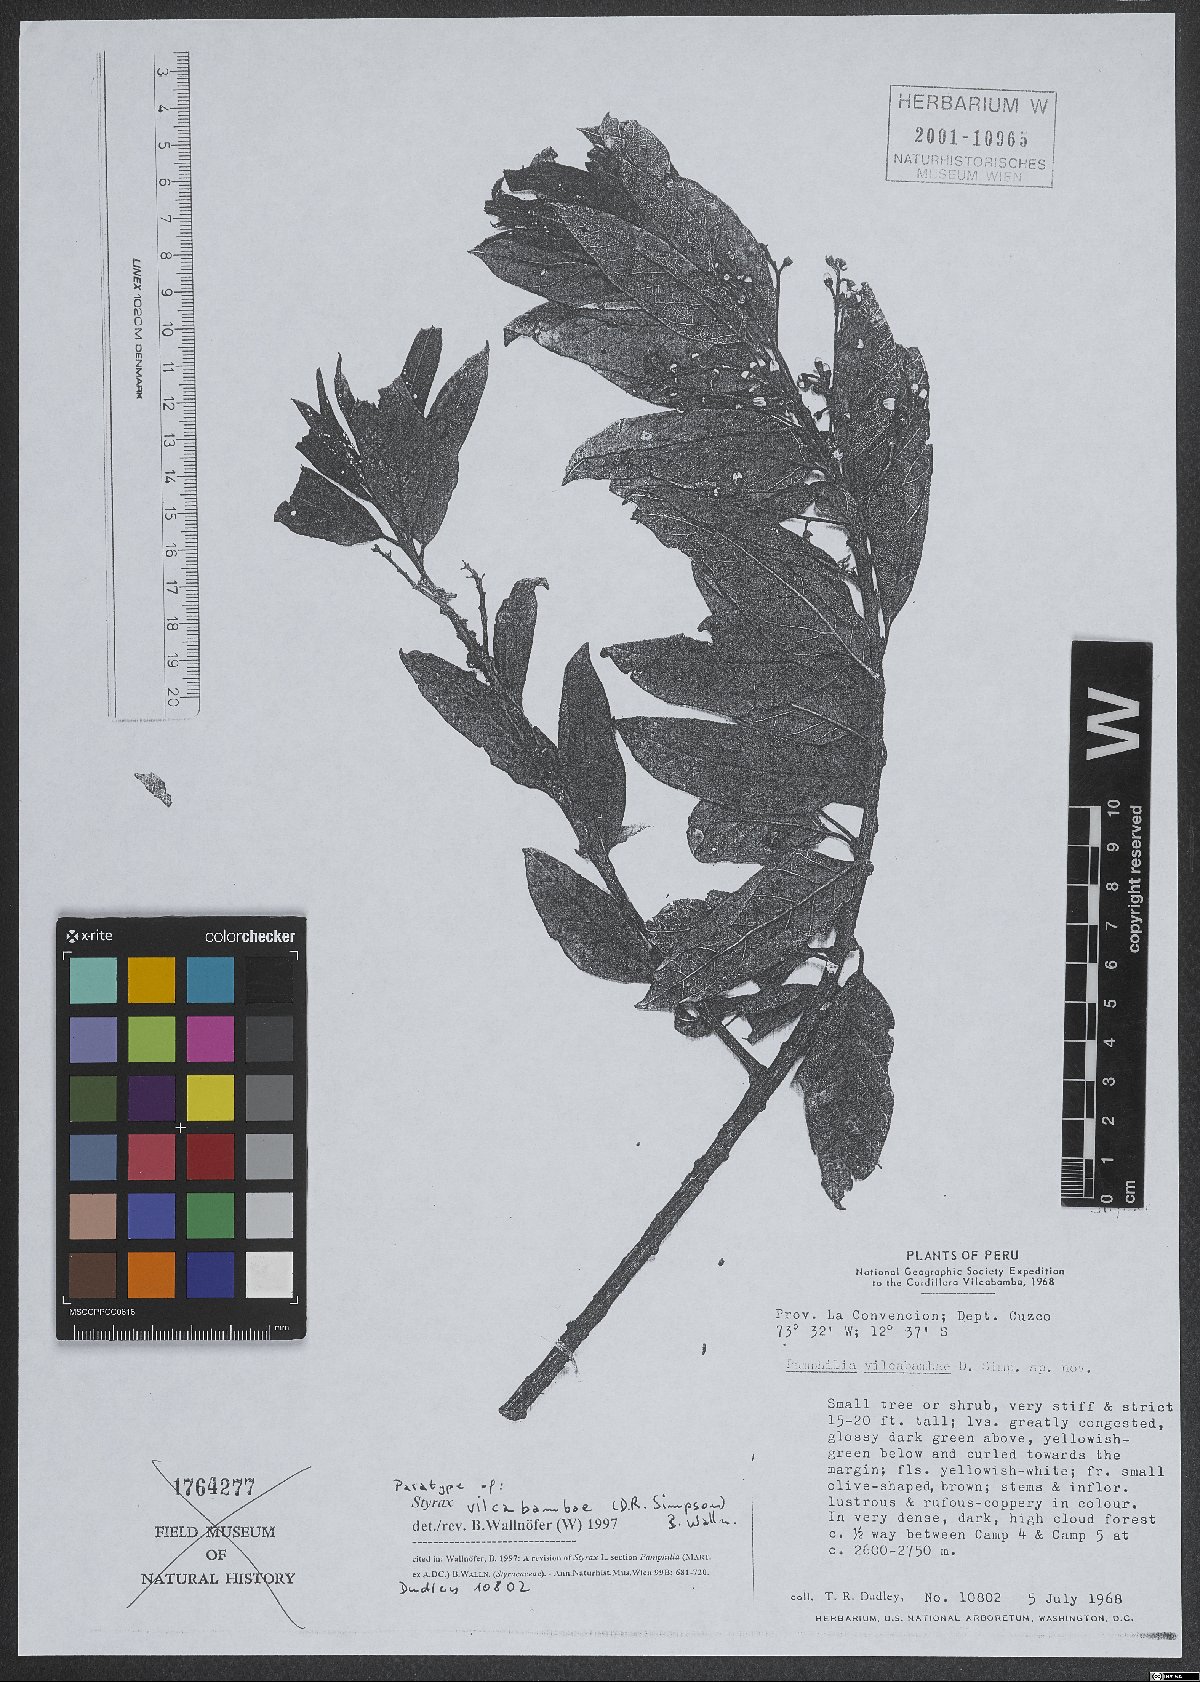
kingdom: Plantae
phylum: Tracheophyta
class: Magnoliopsida
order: Ericales
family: Styracaceae
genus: Styrax
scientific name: Styrax vilcabambae
